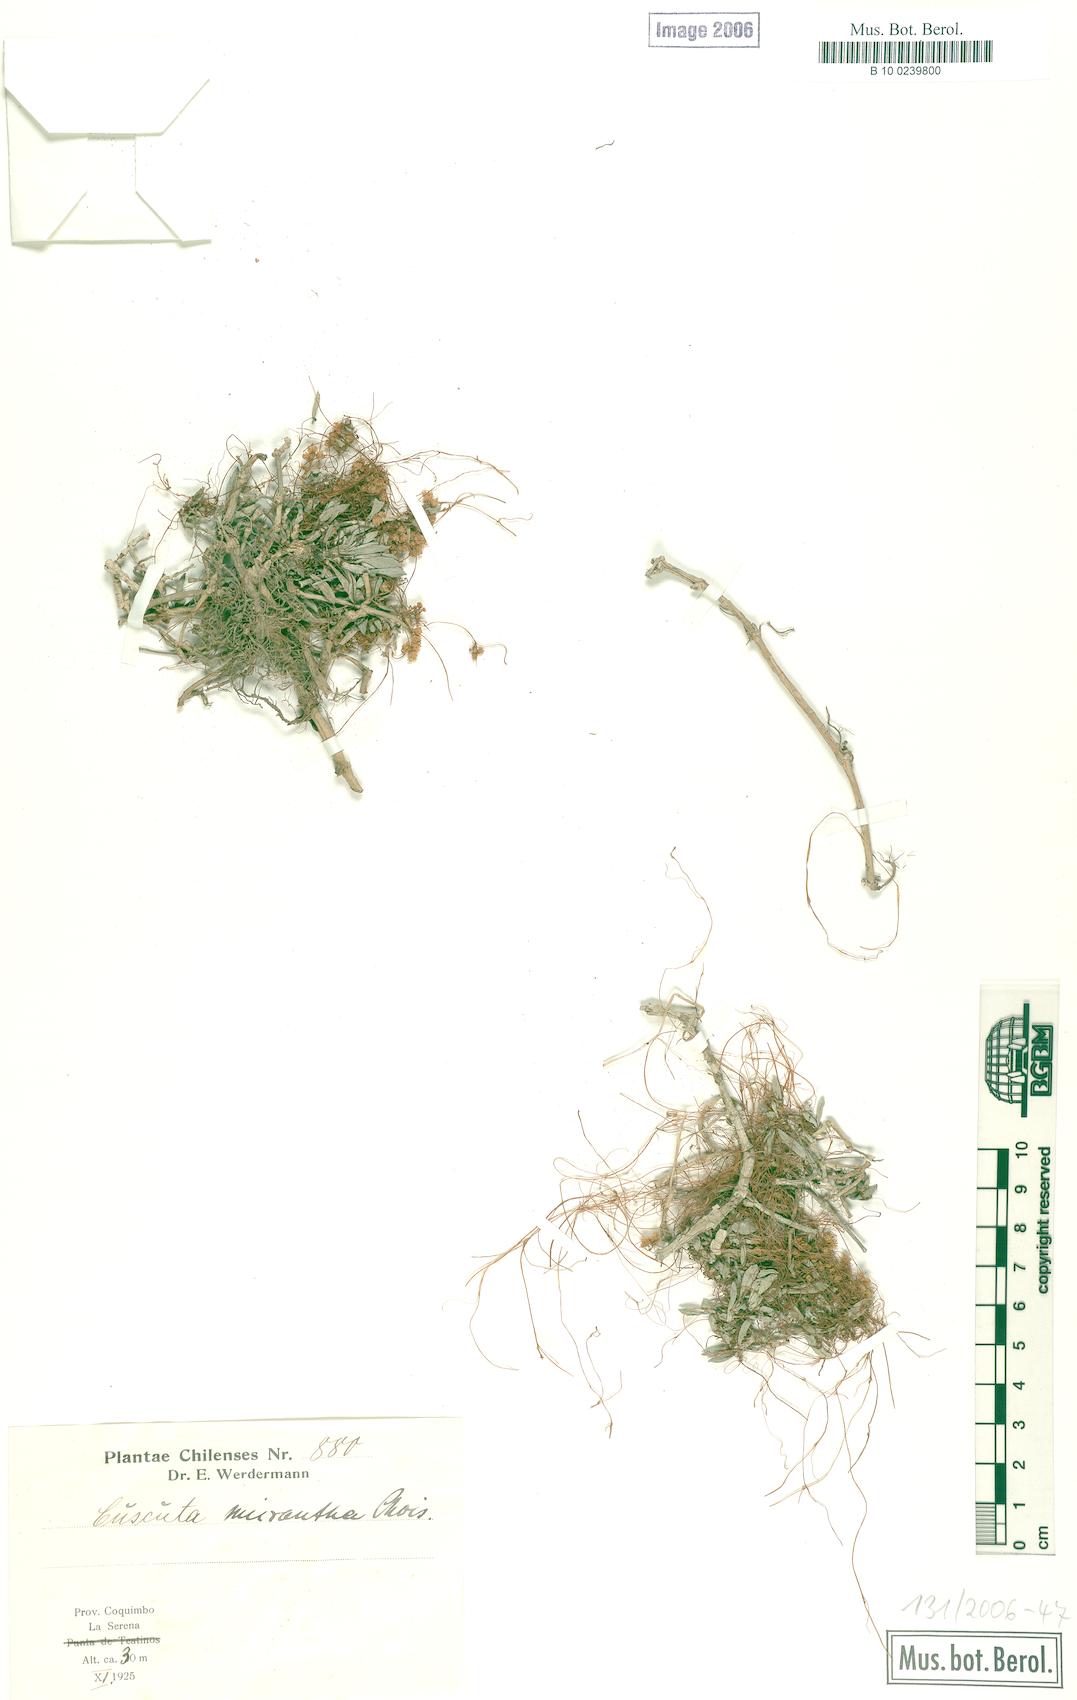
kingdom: Plantae
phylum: Tracheophyta
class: Magnoliopsida
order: Solanales
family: Convolvulaceae
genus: Cuscuta
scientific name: Cuscuta micrantha
